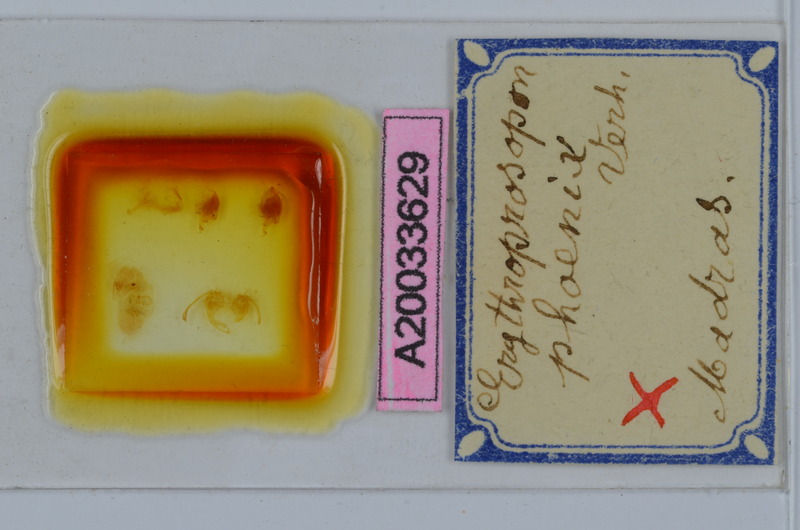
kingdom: Animalia
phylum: Arthropoda
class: Diplopoda
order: Spirobolida
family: Pachybolidae
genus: Erythroprosopon
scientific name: Erythroprosopon phoenix
